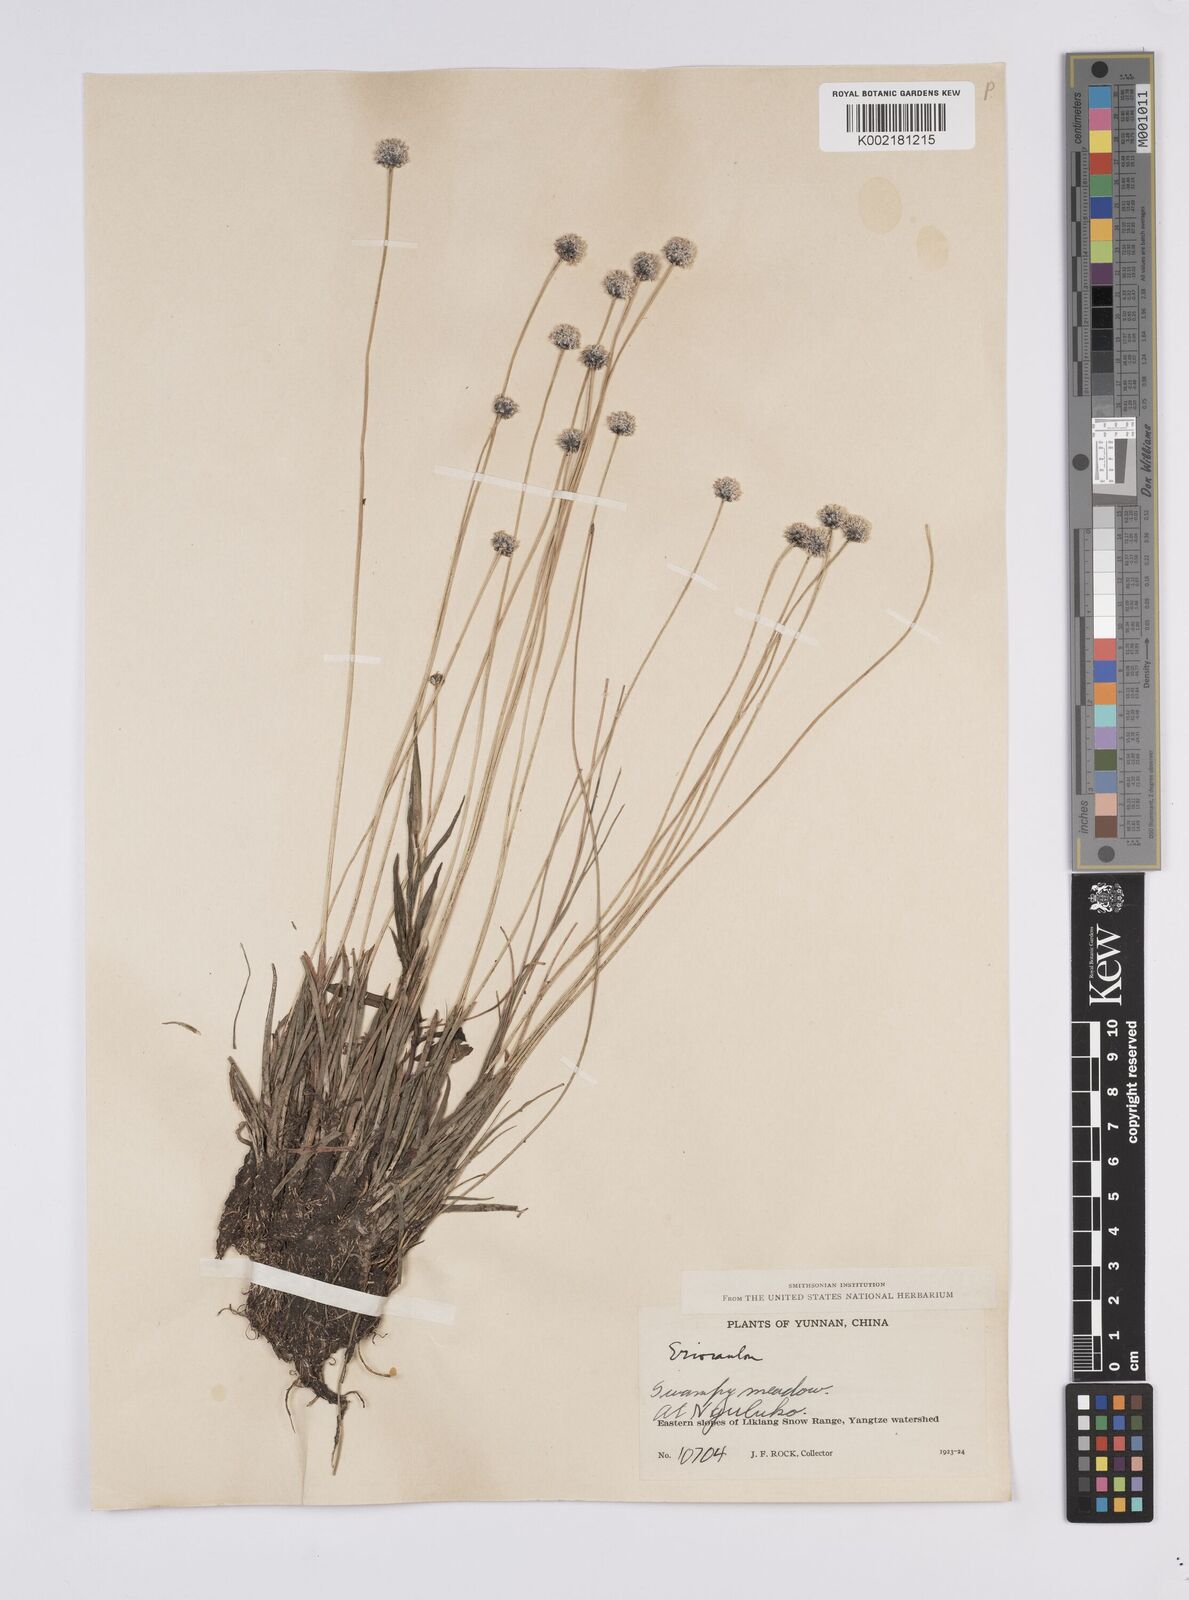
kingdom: Plantae
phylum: Tracheophyta
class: Liliopsida
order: Poales
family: Eriocaulaceae
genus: Eriocaulon
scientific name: Eriocaulon
